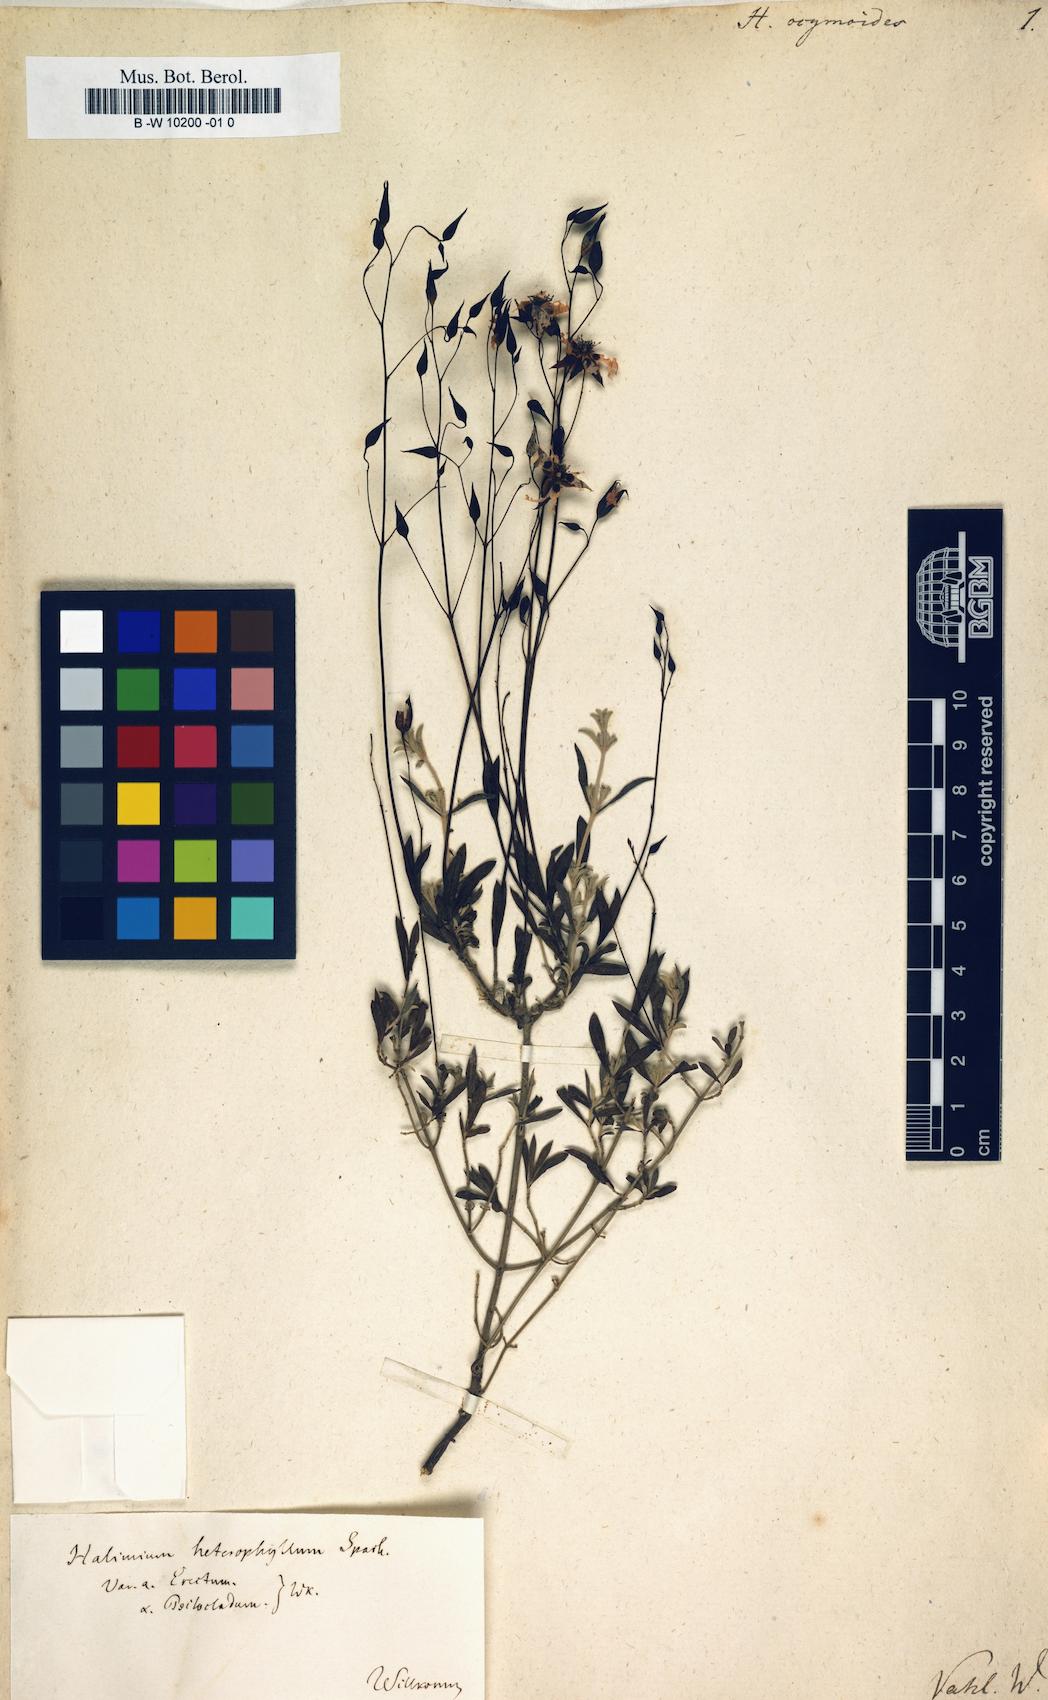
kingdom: Plantae
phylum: Tracheophyta
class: Magnoliopsida
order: Malvales
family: Cistaceae
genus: Halimium
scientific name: Halimium ocymoides
